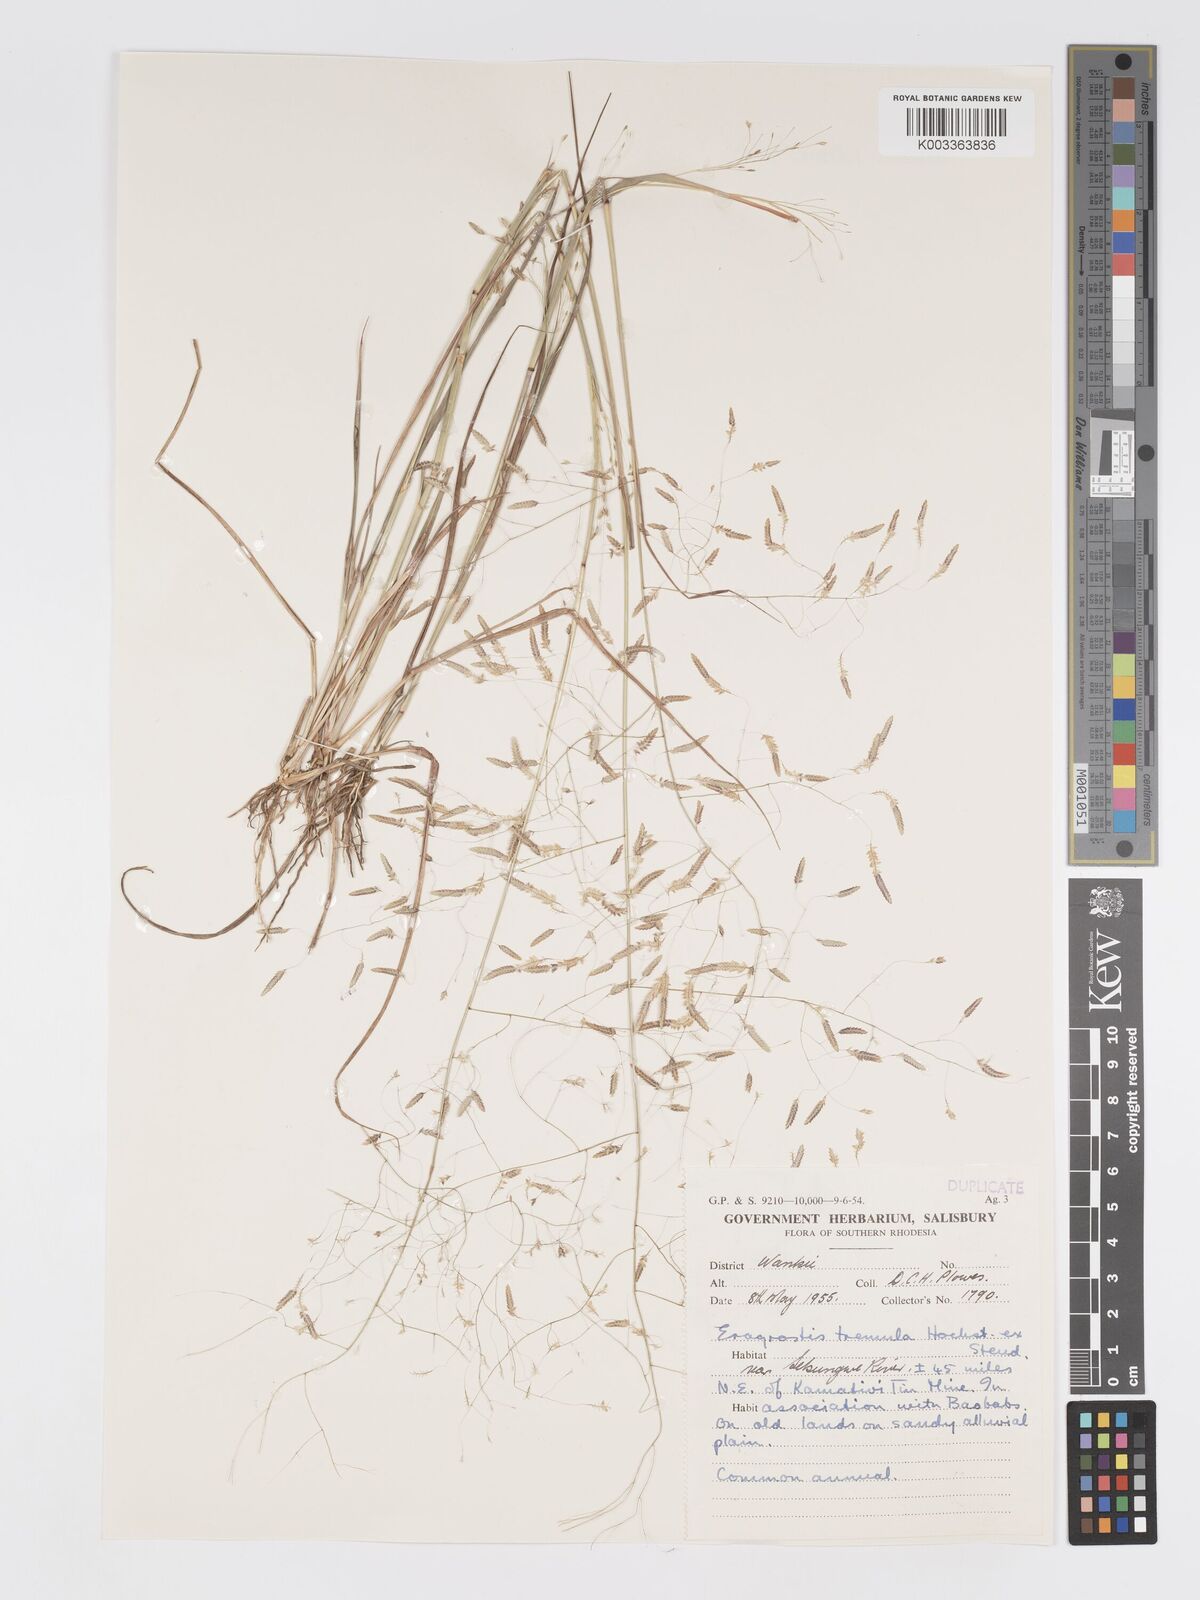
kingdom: Plantae
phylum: Tracheophyta
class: Liliopsida
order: Poales
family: Poaceae
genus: Eragrostis
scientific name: Eragrostis tremula
